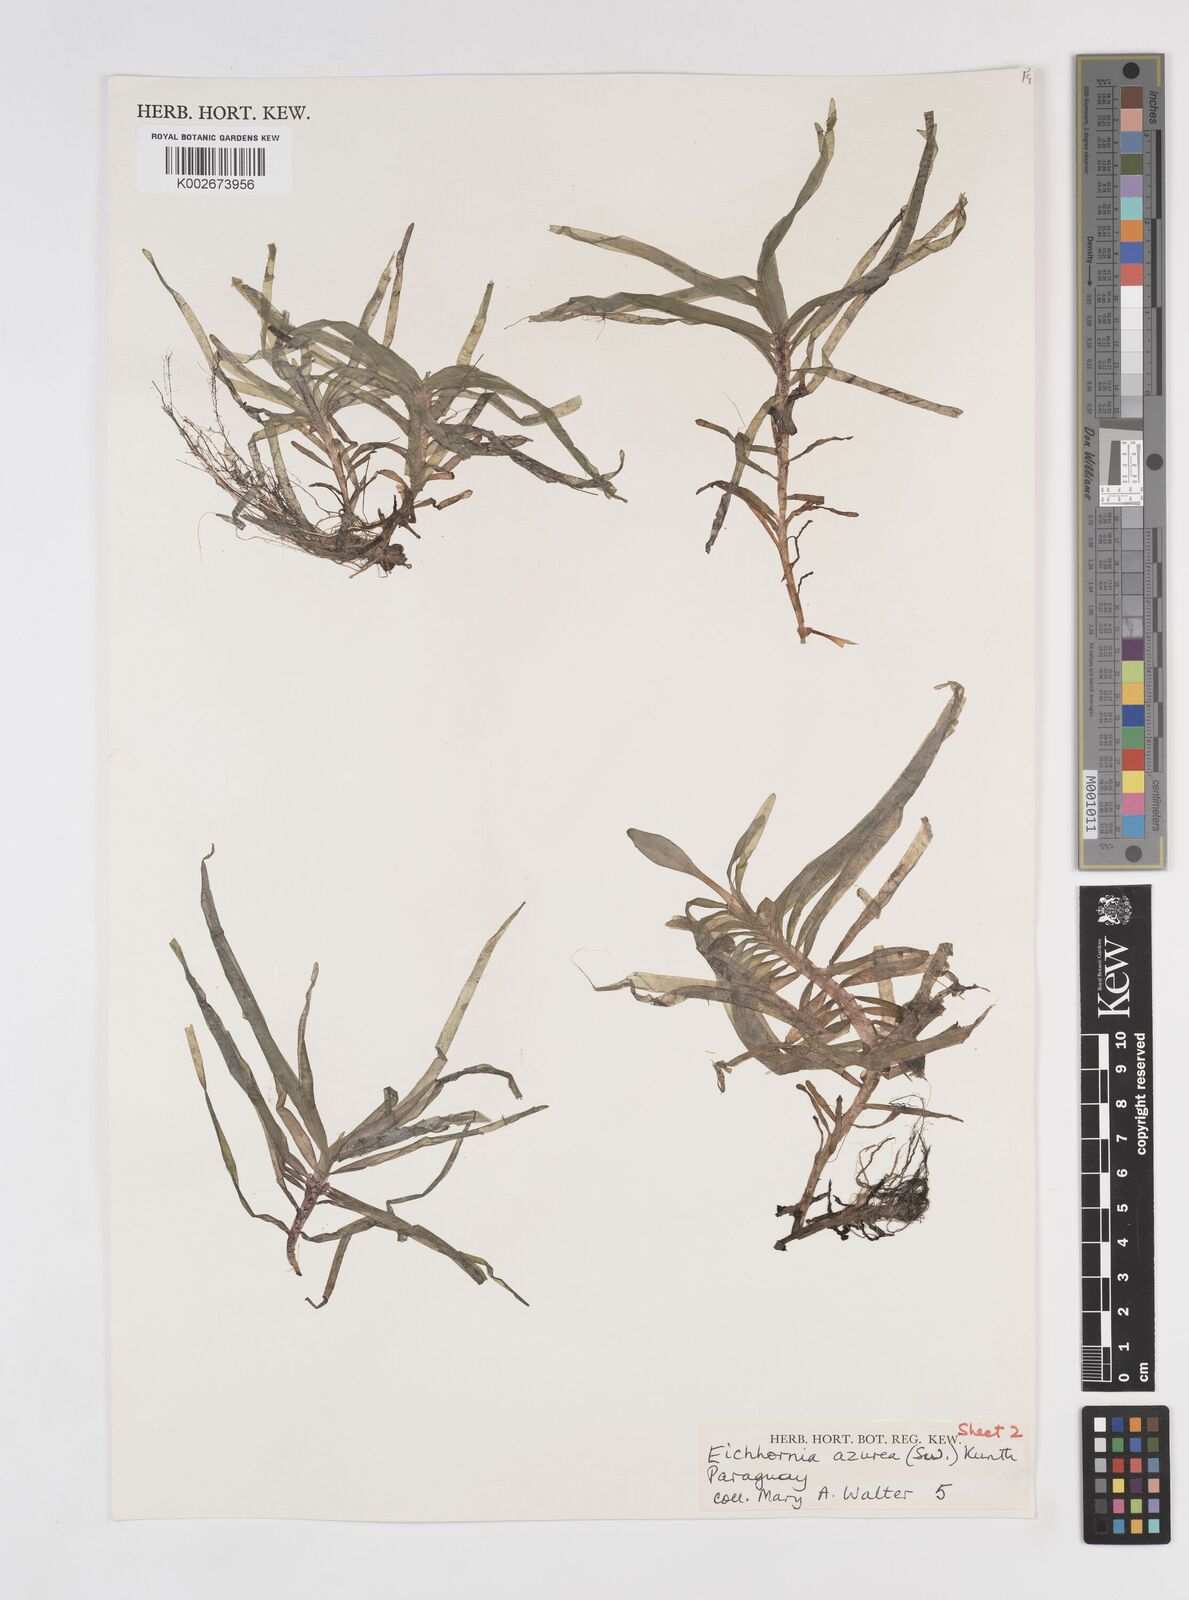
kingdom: Plantae
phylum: Tracheophyta
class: Liliopsida
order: Commelinales
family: Pontederiaceae
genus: Pontederia
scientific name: Pontederia azurea
